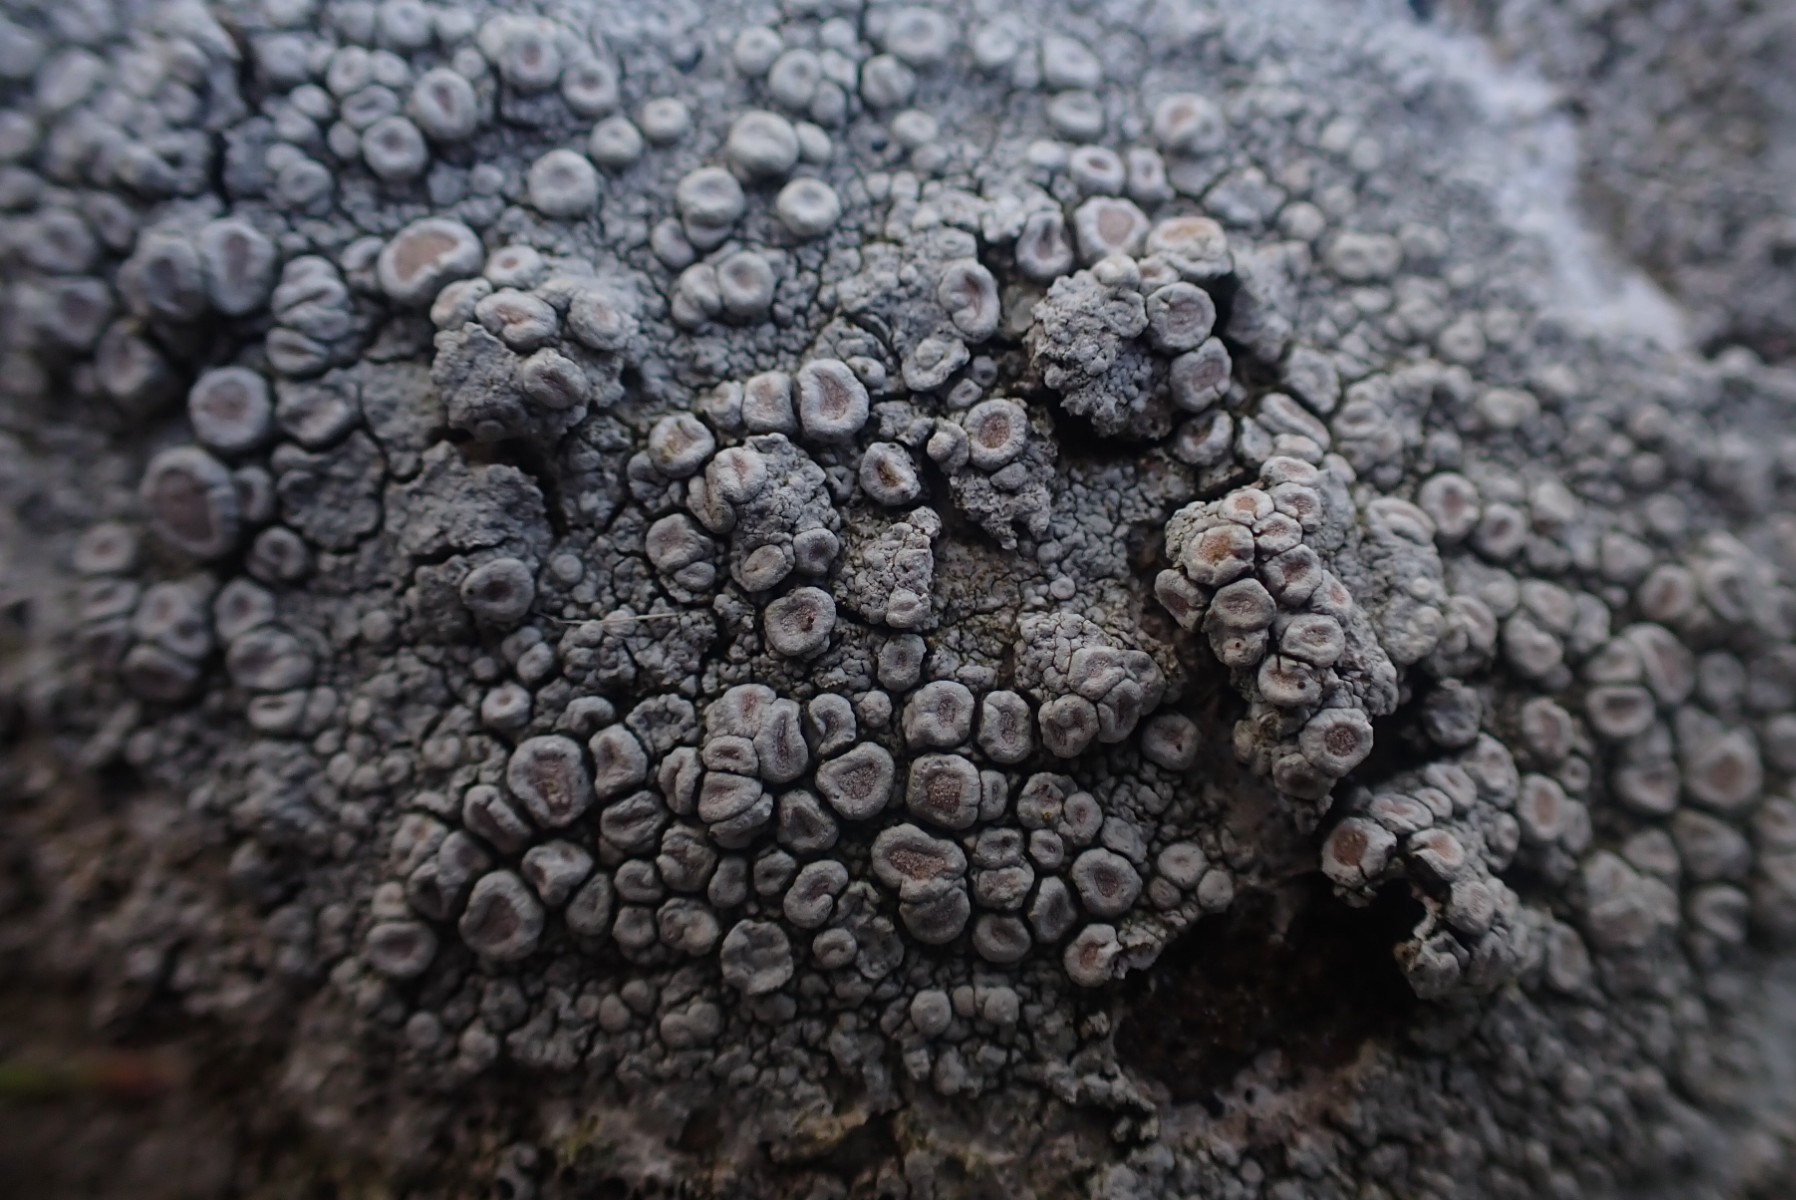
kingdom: Fungi
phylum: Ascomycota
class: Lecanoromycetes
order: Pertusariales
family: Ochrolechiaceae
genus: Ochrolechia
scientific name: Ochrolechia parella
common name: almindelig blegskivelav
